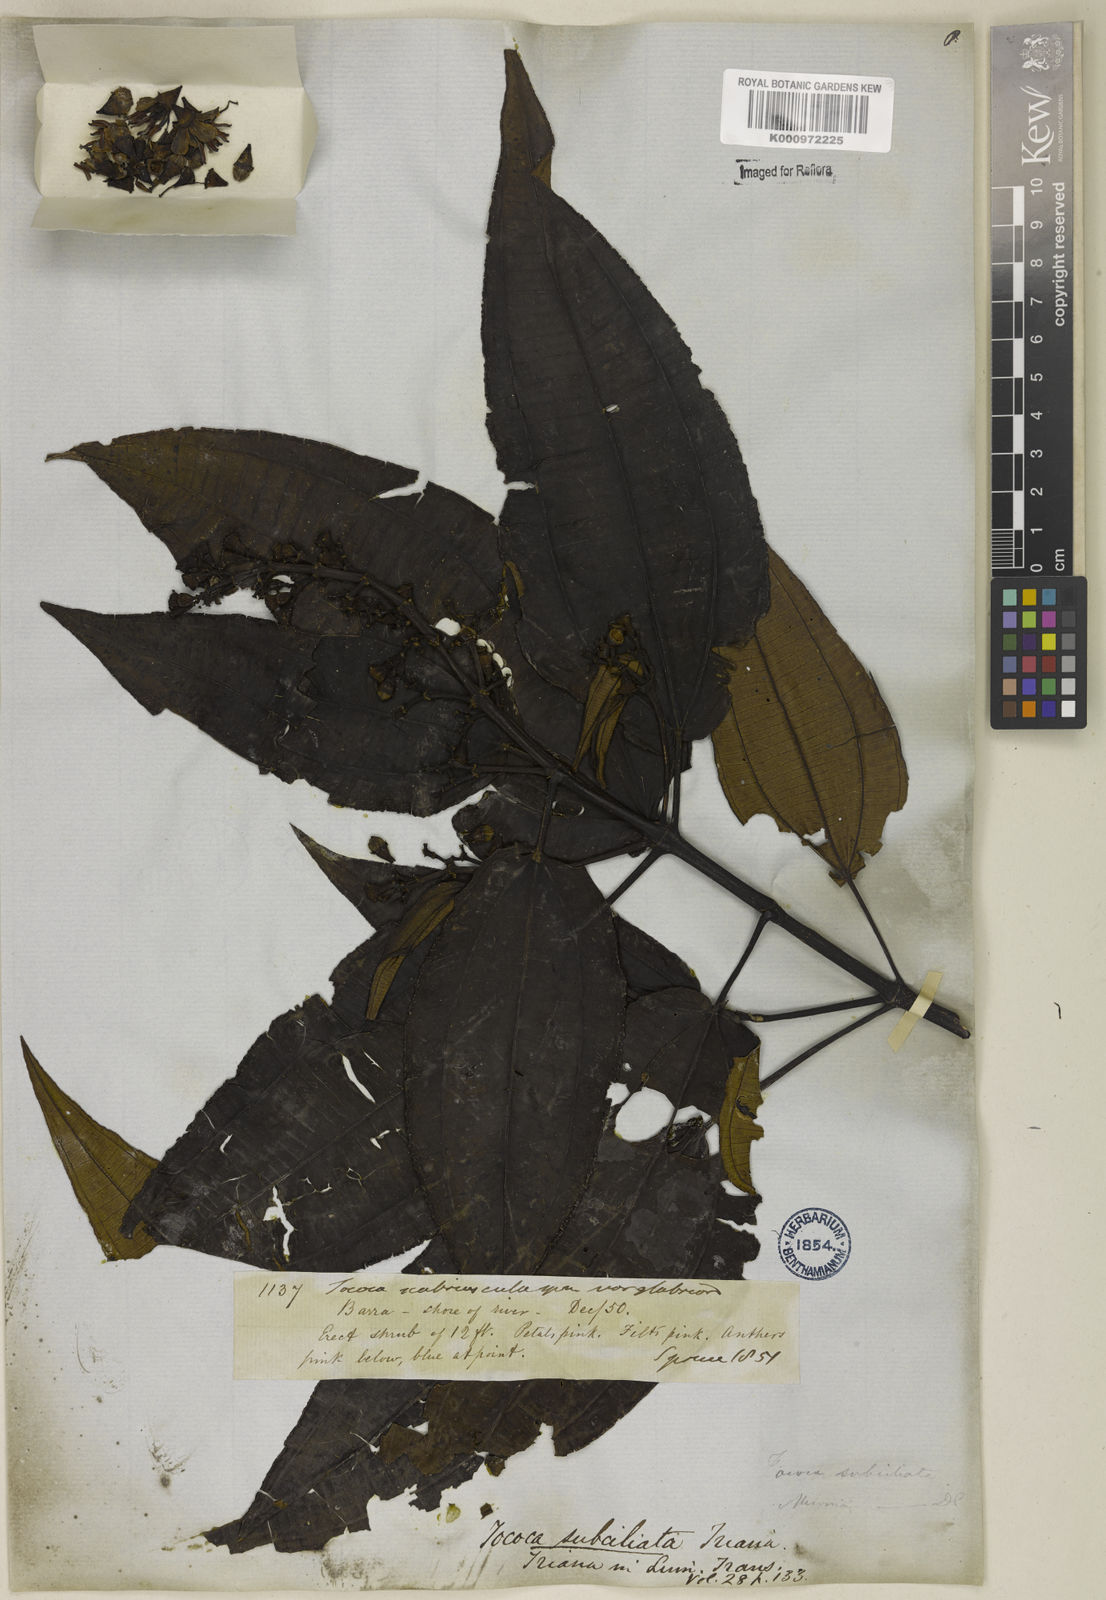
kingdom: Plantae
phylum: Tracheophyta
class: Magnoliopsida
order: Myrtales
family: Melastomataceae
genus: Miconia
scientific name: Miconia subciliata
